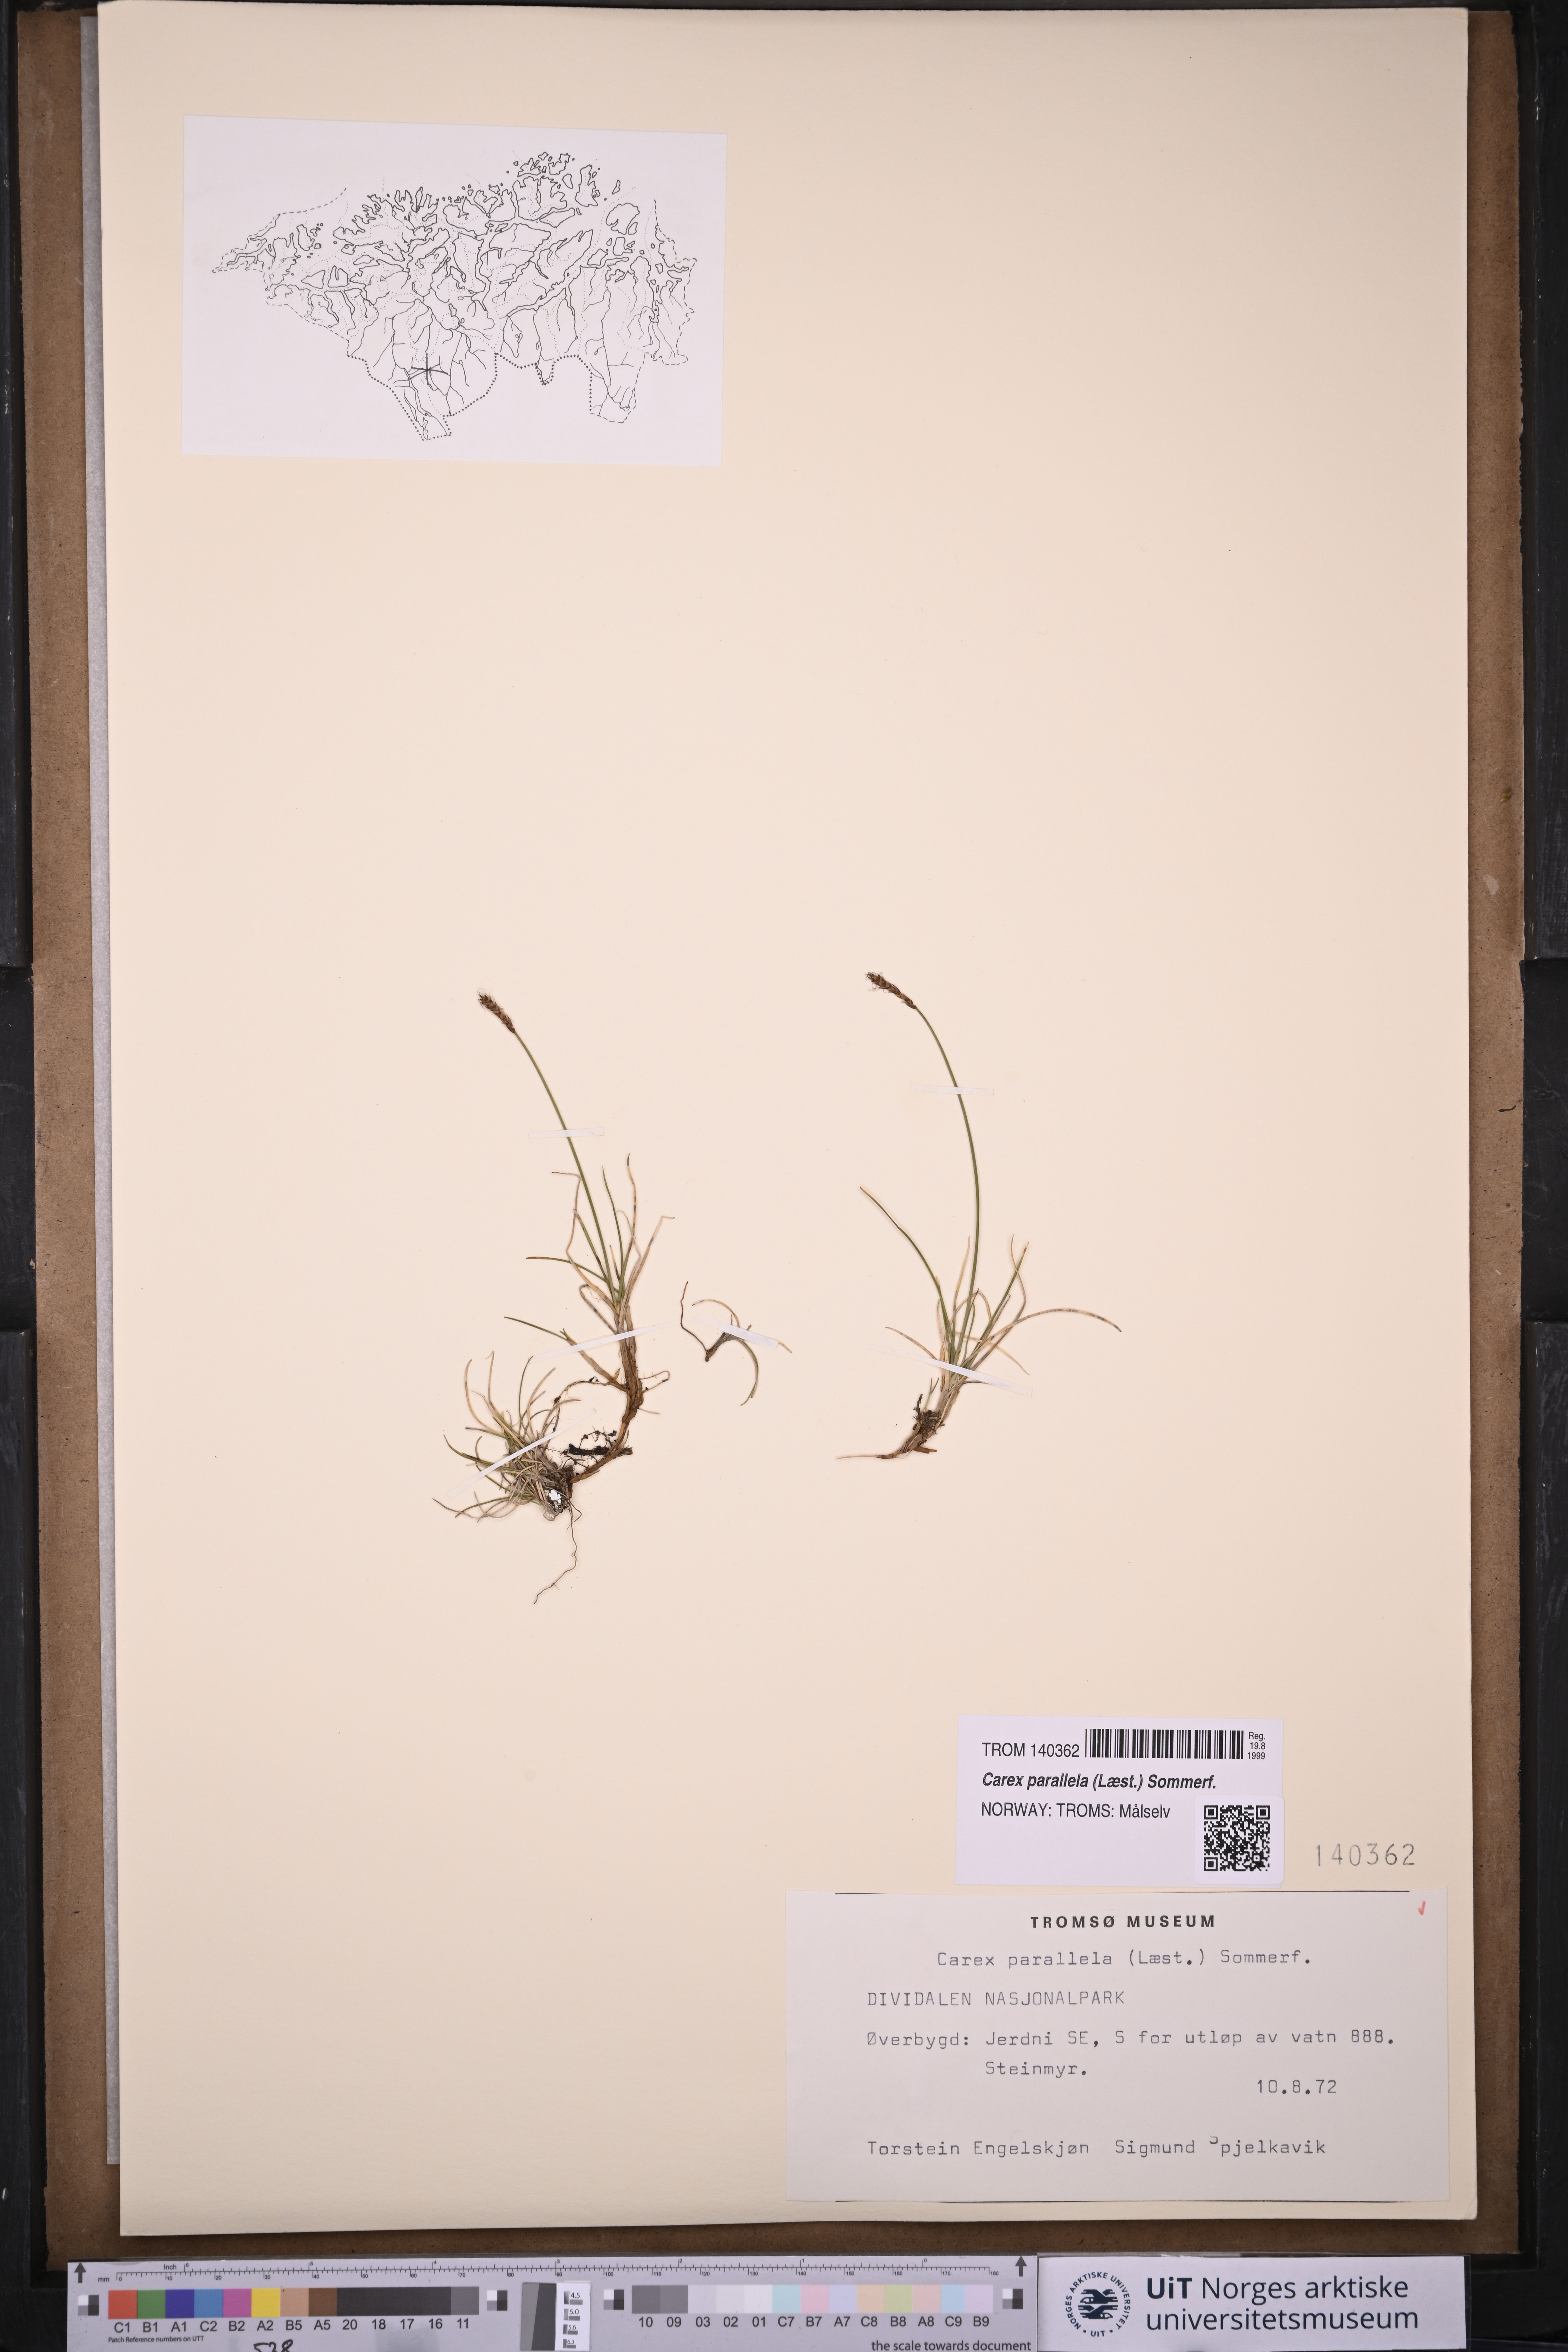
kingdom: Plantae
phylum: Tracheophyta
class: Liliopsida
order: Poales
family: Cyperaceae
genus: Carex
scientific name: Carex parallela
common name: Parallel sedge
